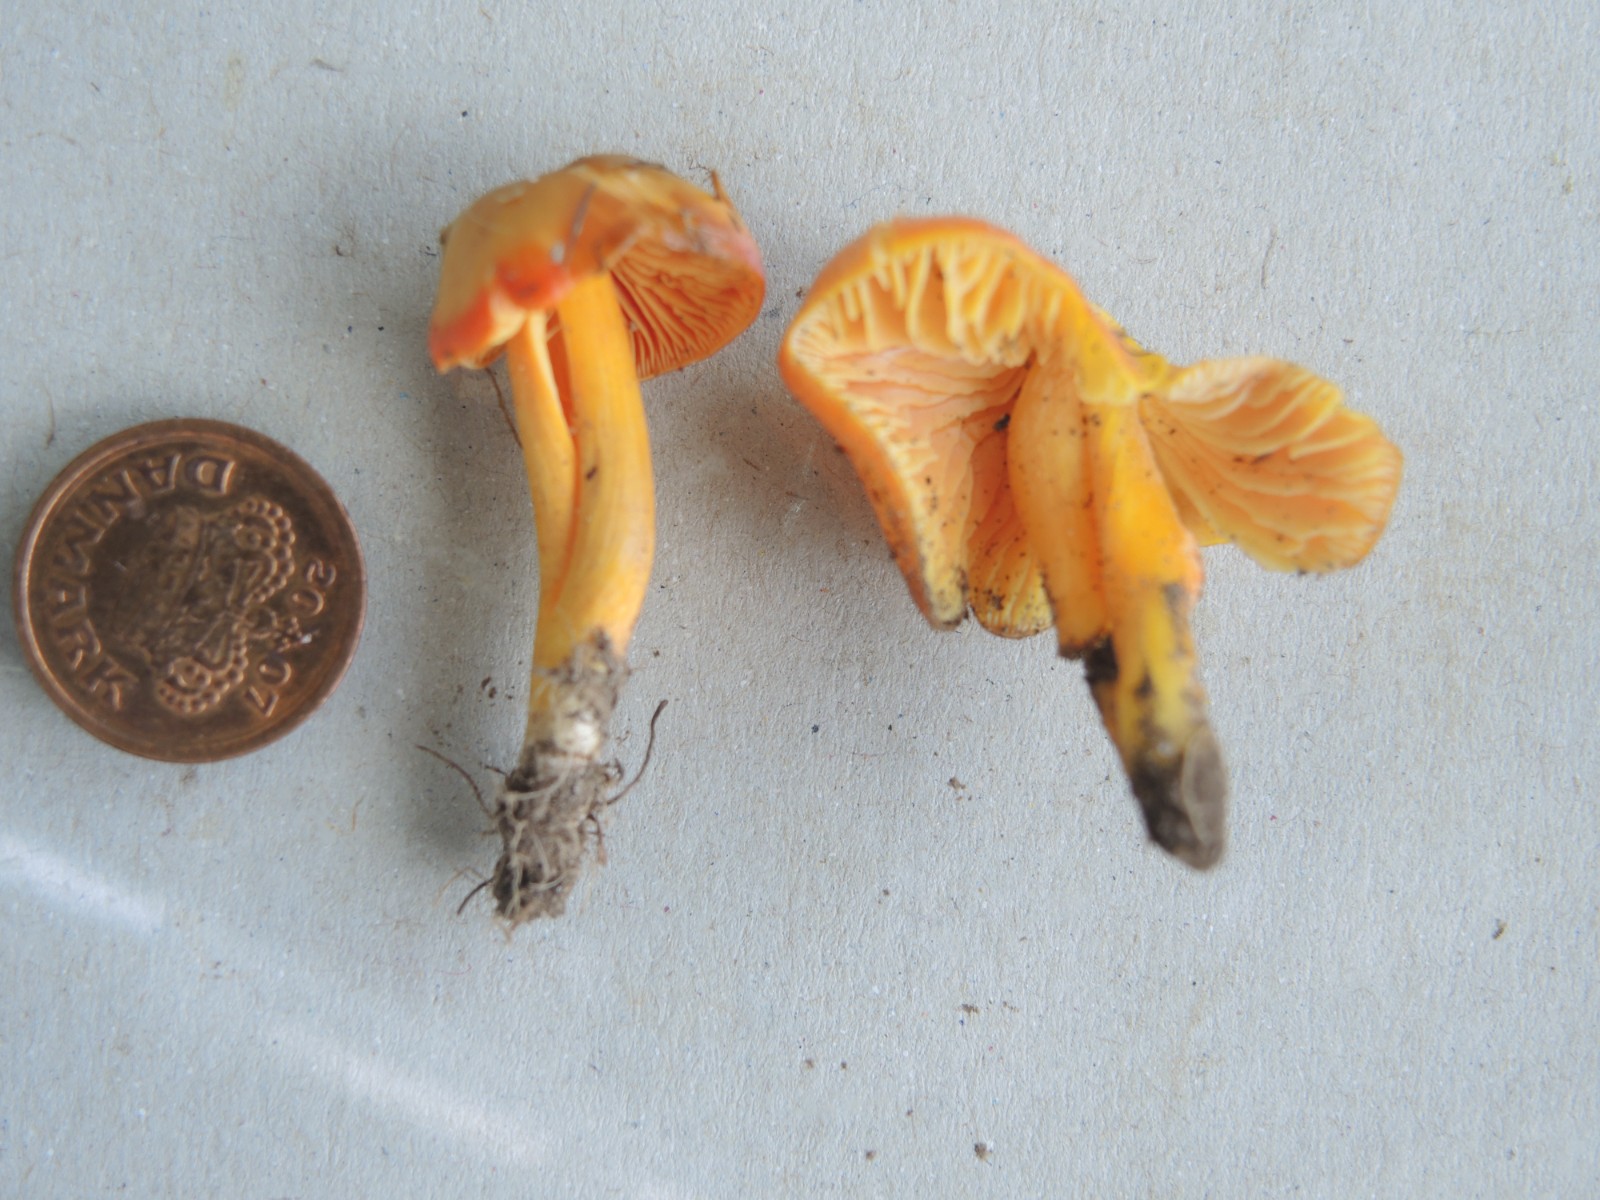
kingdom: Fungi
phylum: Basidiomycota
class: Agaricomycetes
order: Agaricales
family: Hygrophoraceae
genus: Hygrocybe
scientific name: Hygrocybe chlorophana
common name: gul vokshat
